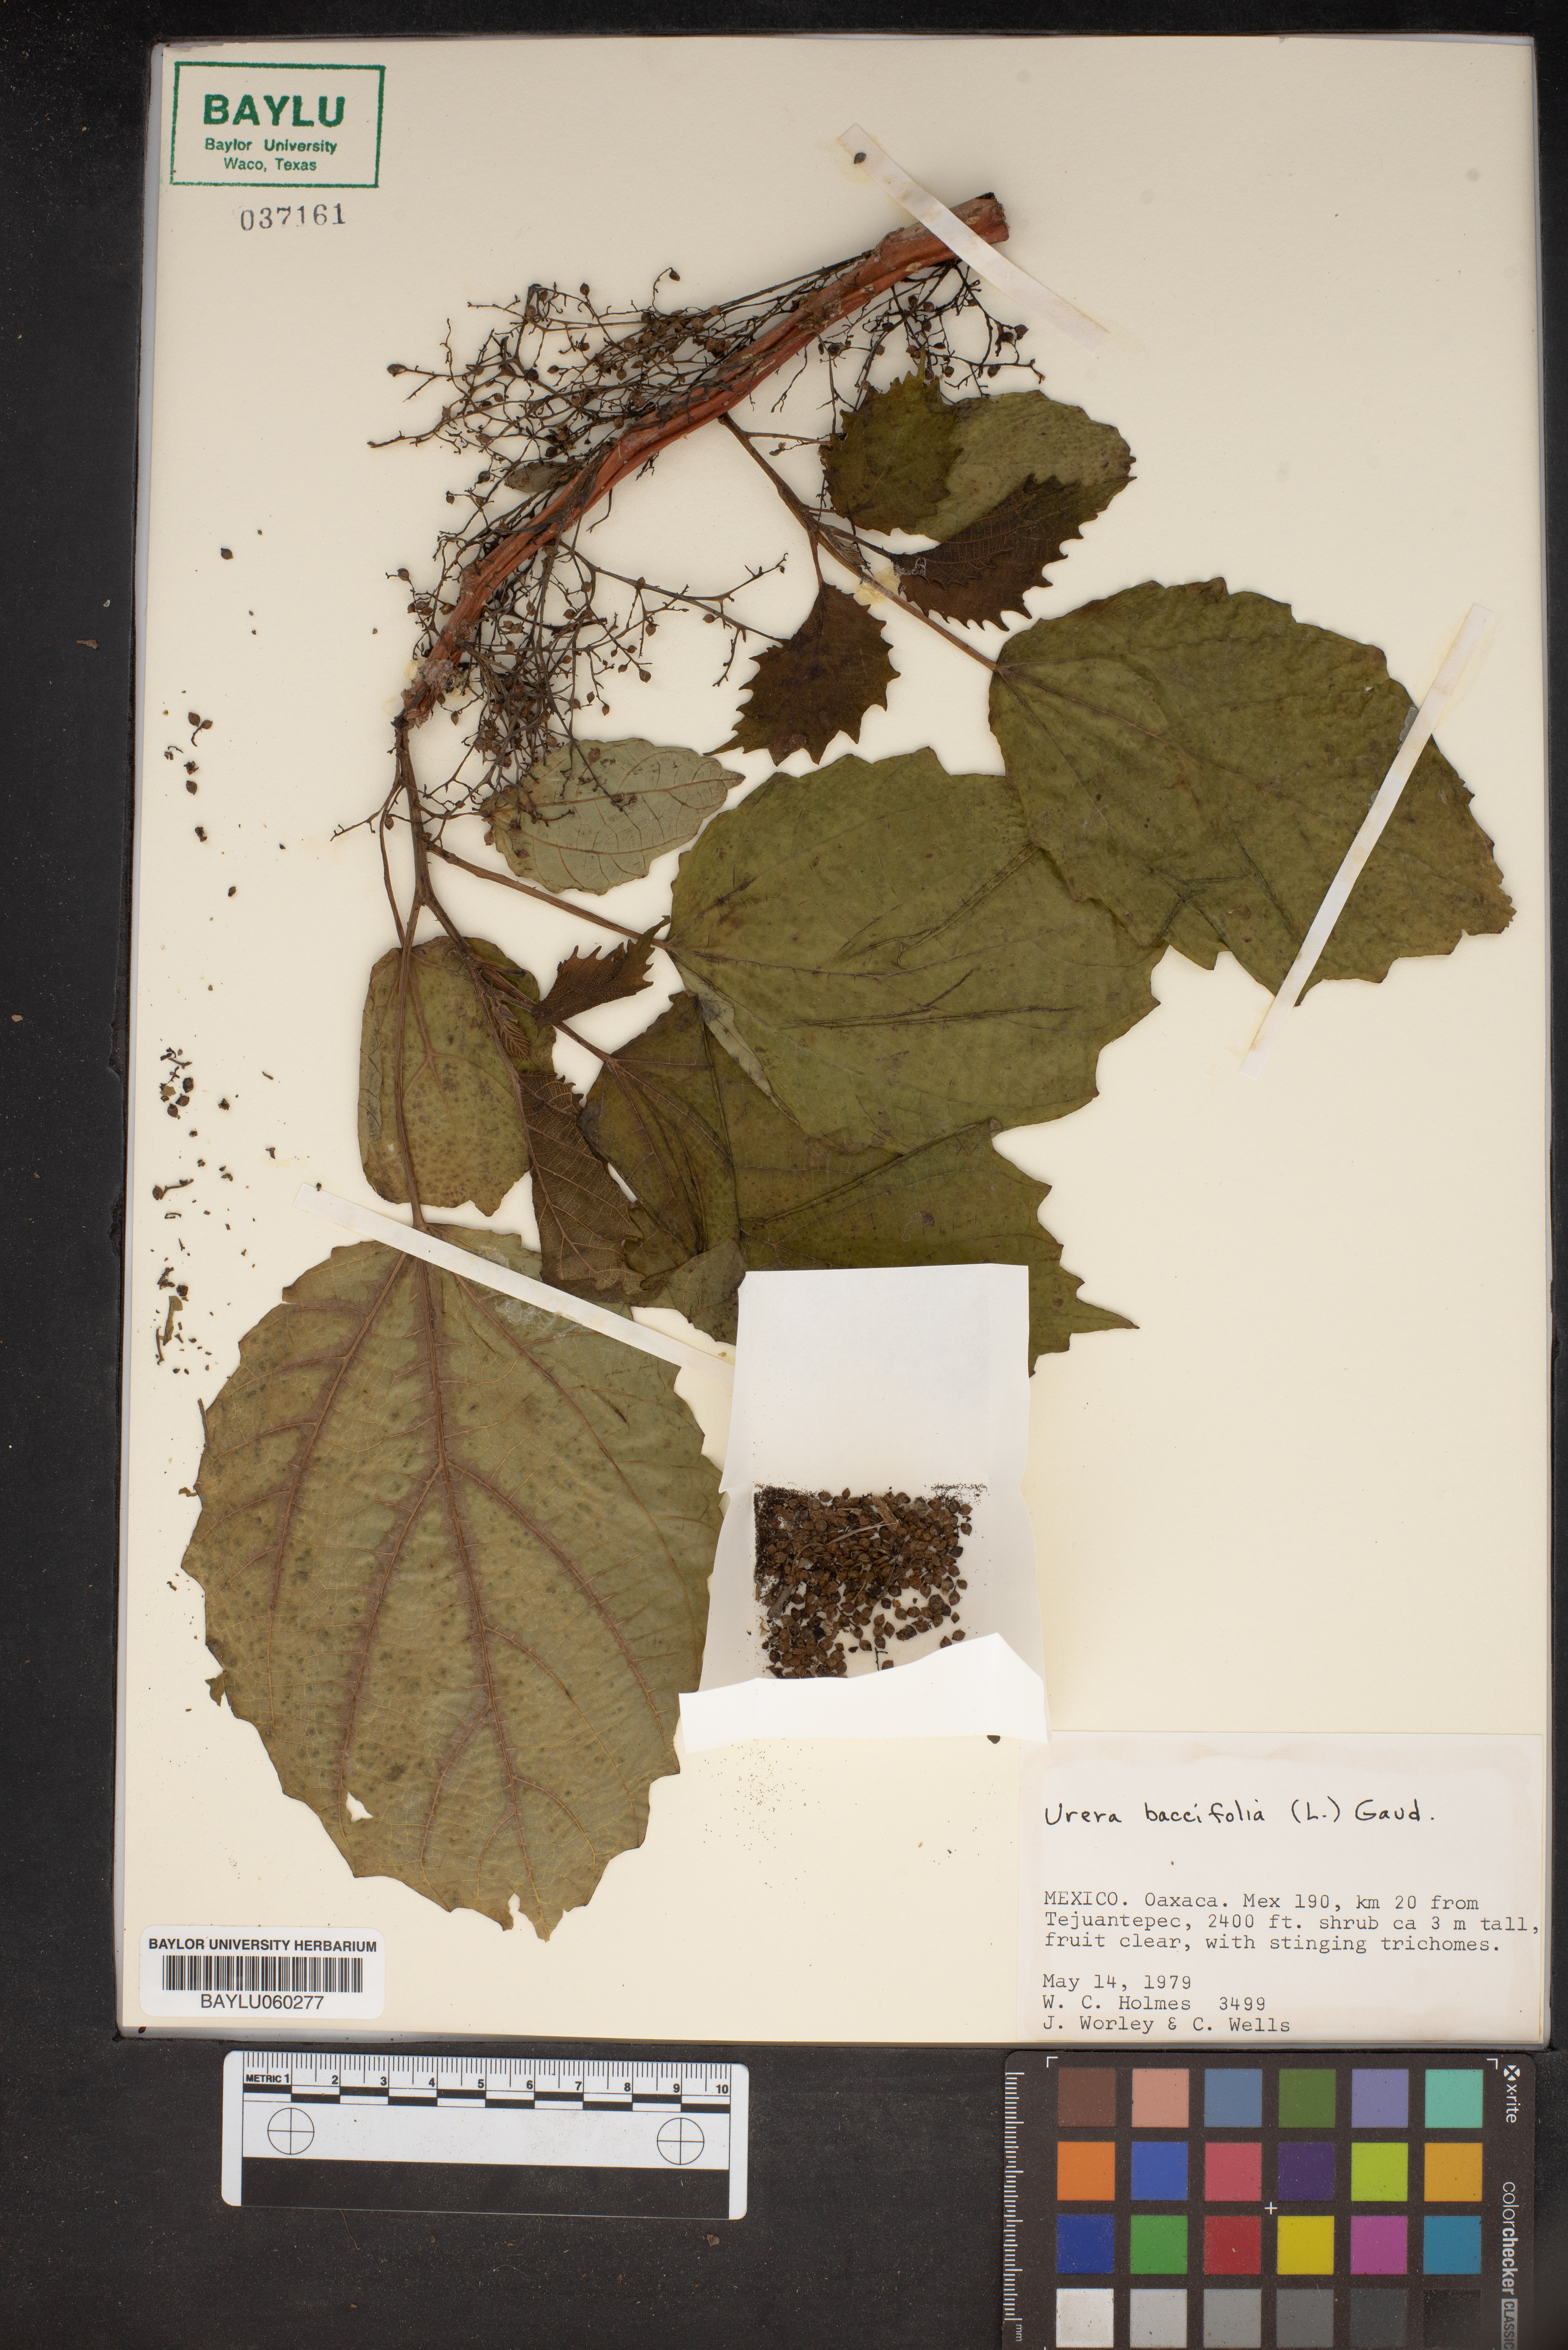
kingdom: Plantae
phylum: Tracheophyta
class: Magnoliopsida
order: Rosales
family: Urticaceae
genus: Urera
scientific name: Urera baccifera
